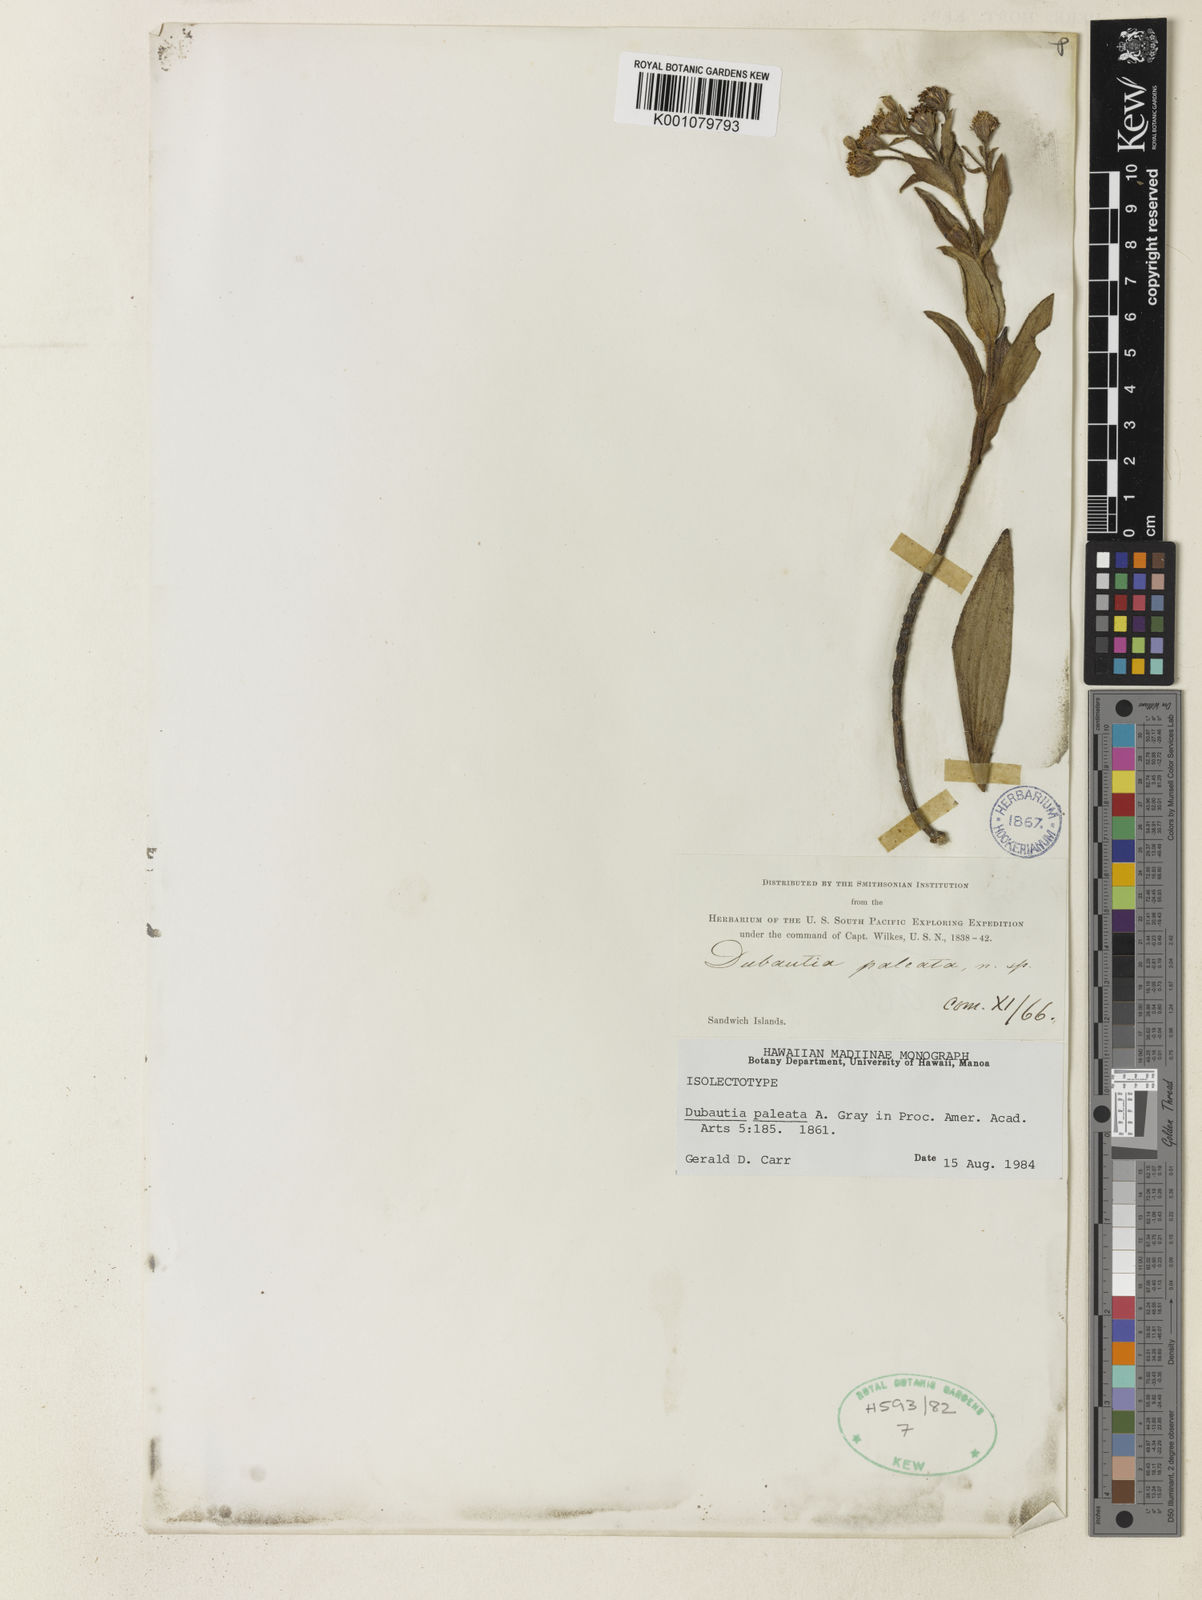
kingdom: Plantae
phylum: Tracheophyta
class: Magnoliopsida
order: Asterales
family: Asteraceae
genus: Dubautia
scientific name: Dubautia paleata
